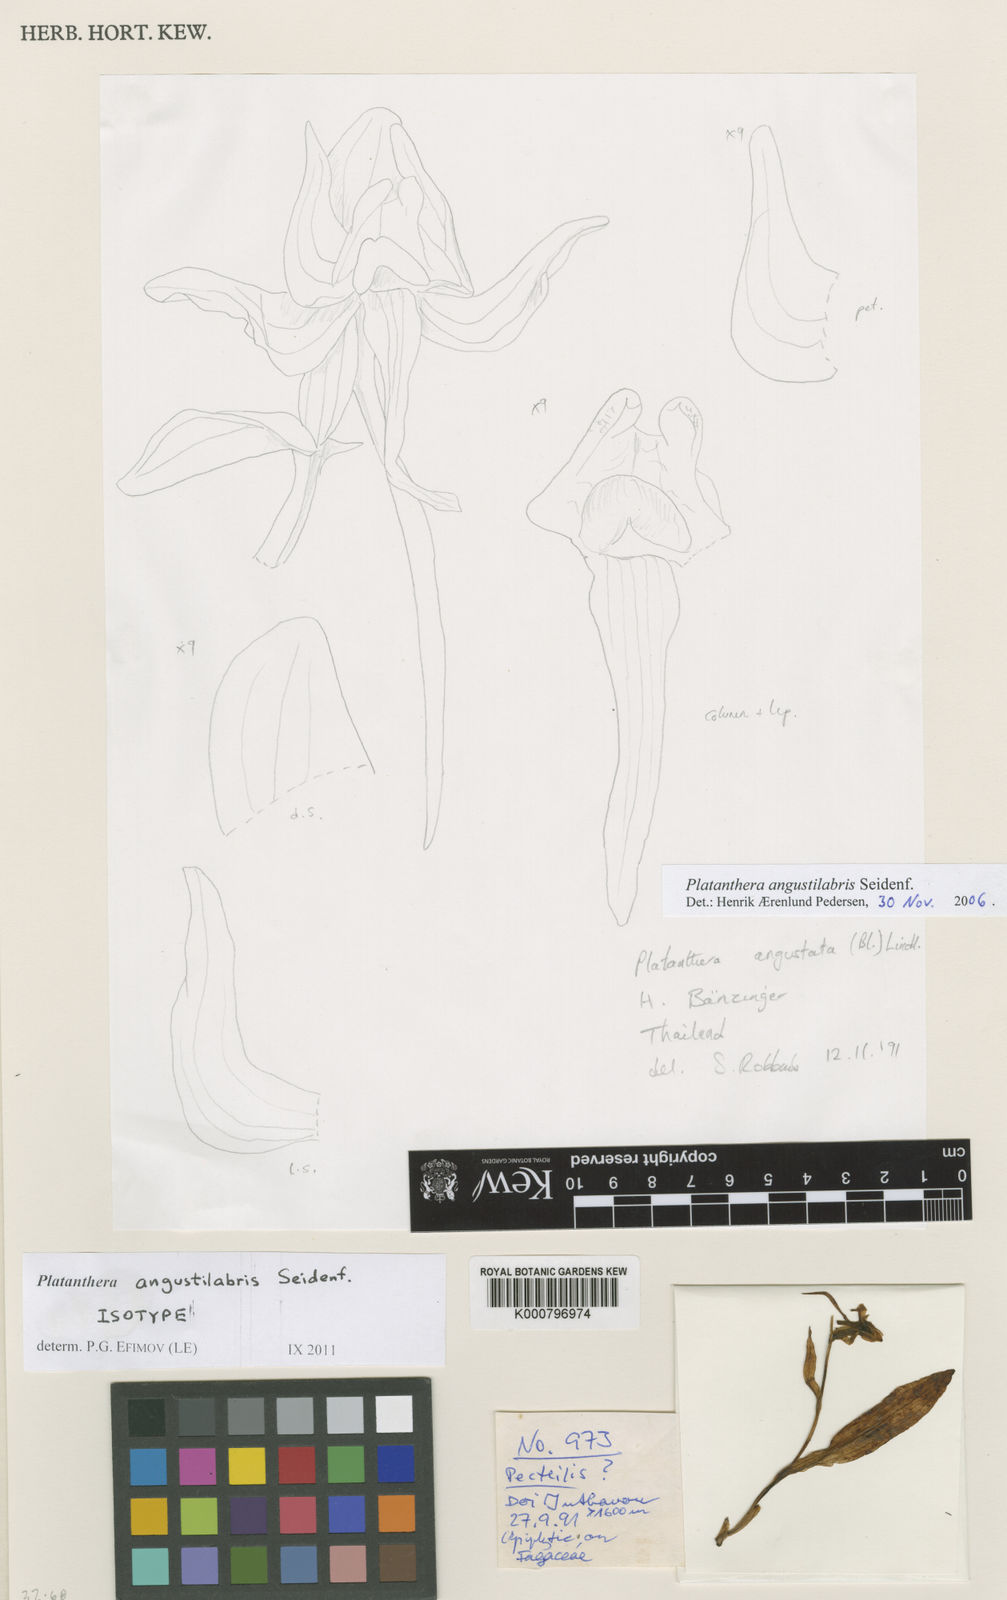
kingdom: Plantae
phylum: Tracheophyta
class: Liliopsida
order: Asparagales
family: Orchidaceae
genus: Platanthera
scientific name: Platanthera angustilabris
